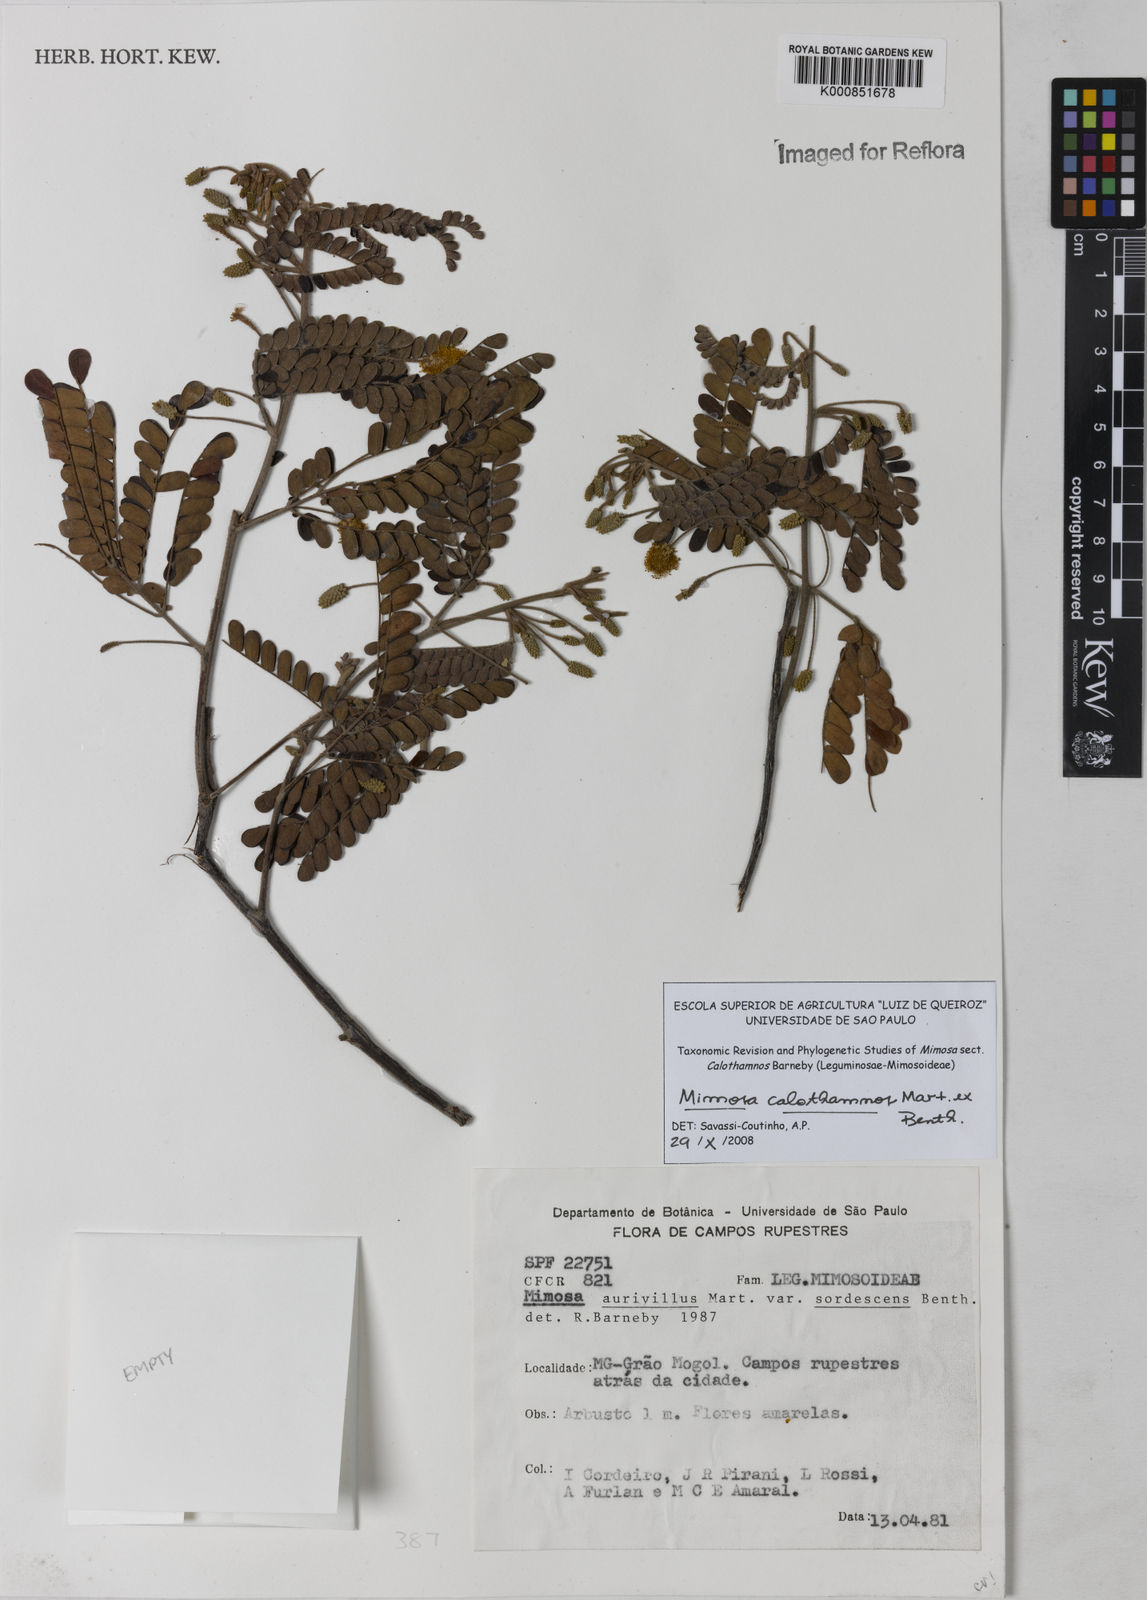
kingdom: Plantae
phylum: Tracheophyta
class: Magnoliopsida
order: Fabales
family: Fabaceae
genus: Mimosa
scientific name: Mimosa aurivillus
